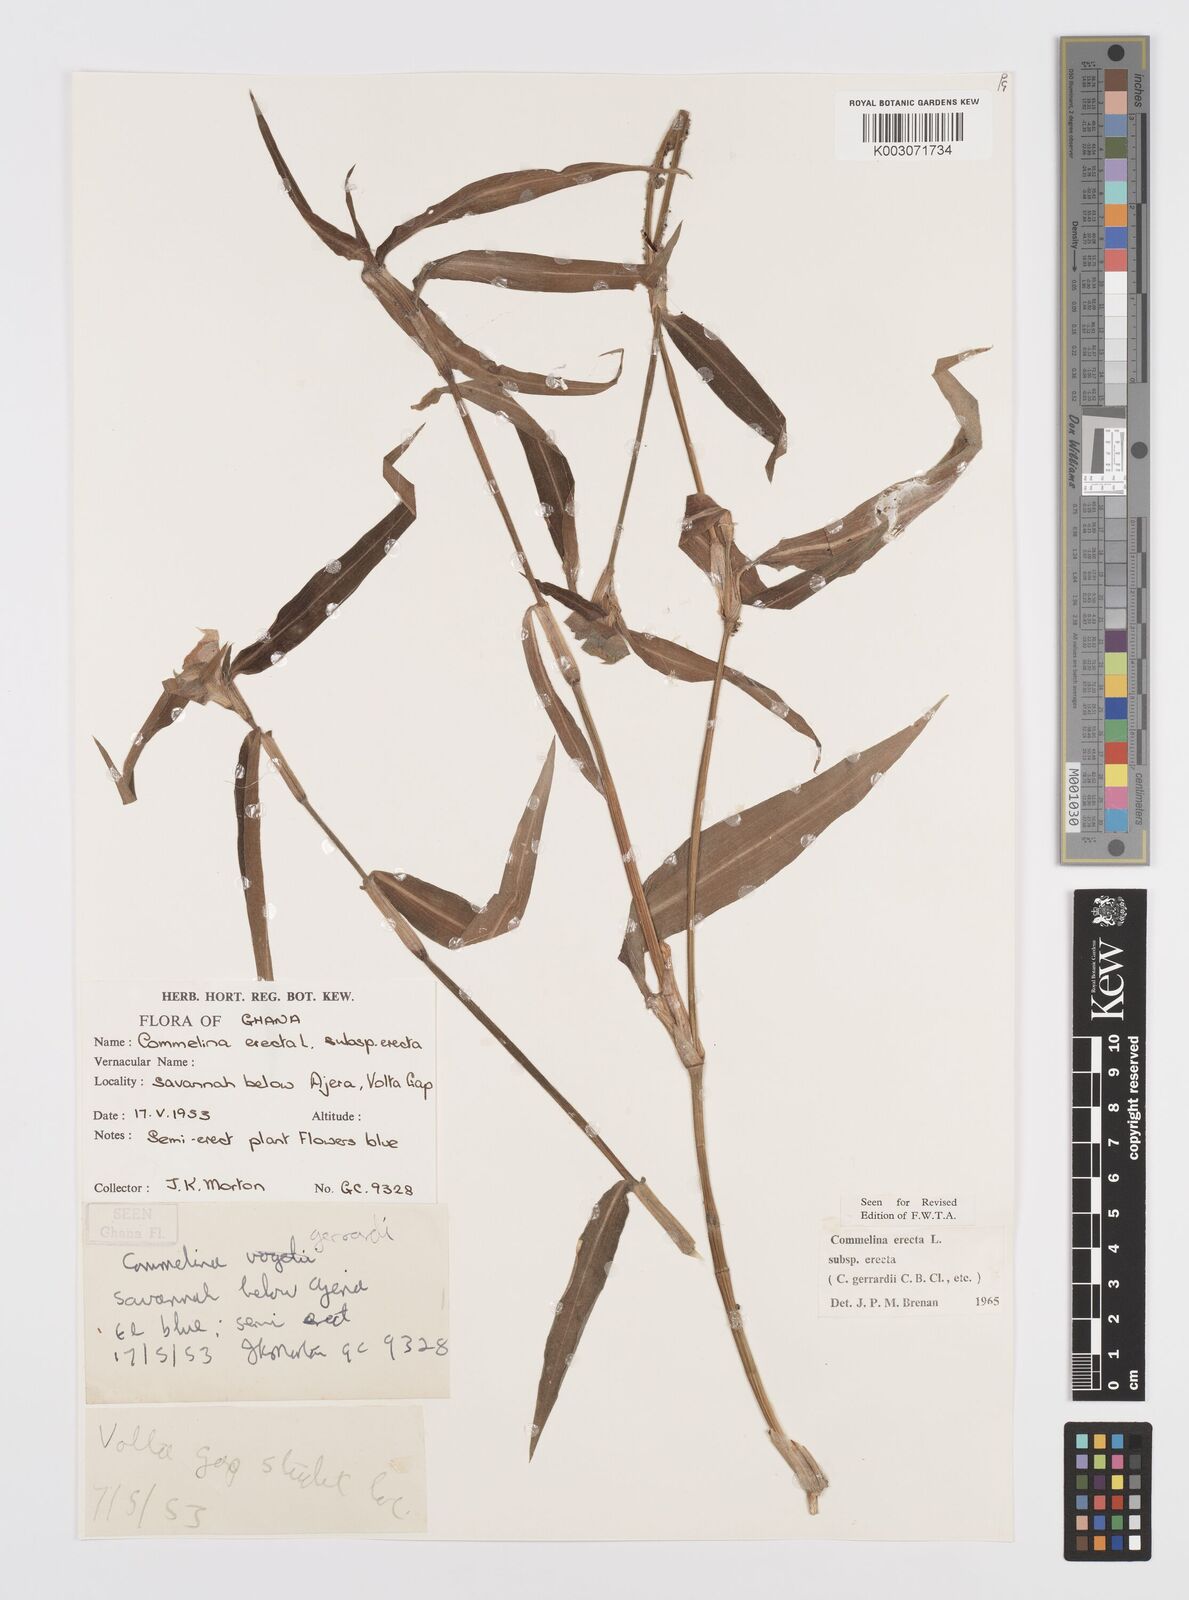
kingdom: Plantae
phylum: Tracheophyta
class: Liliopsida
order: Commelinales
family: Commelinaceae
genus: Commelina
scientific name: Commelina erecta
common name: Blousel blommetjie
